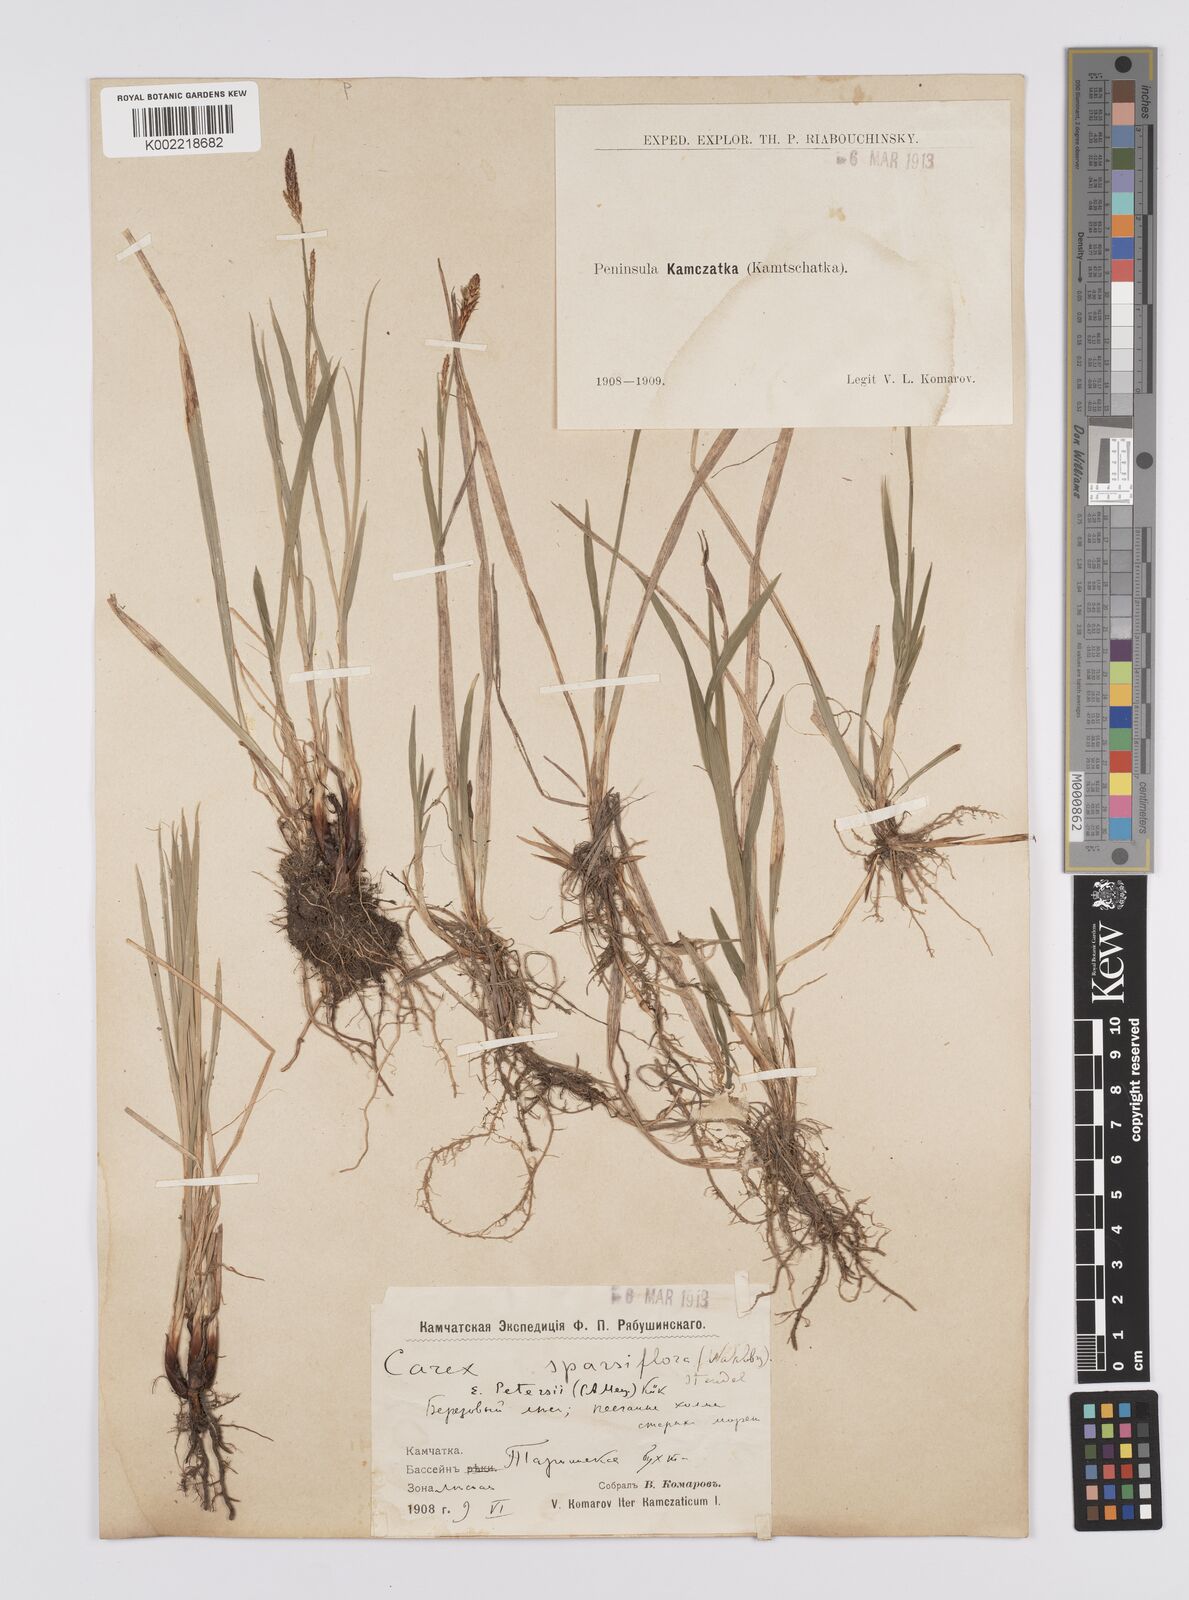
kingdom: Plantae
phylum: Tracheophyta
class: Liliopsida
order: Poales
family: Cyperaceae
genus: Carex
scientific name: Carex vaginata
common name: Sheathed sedge
